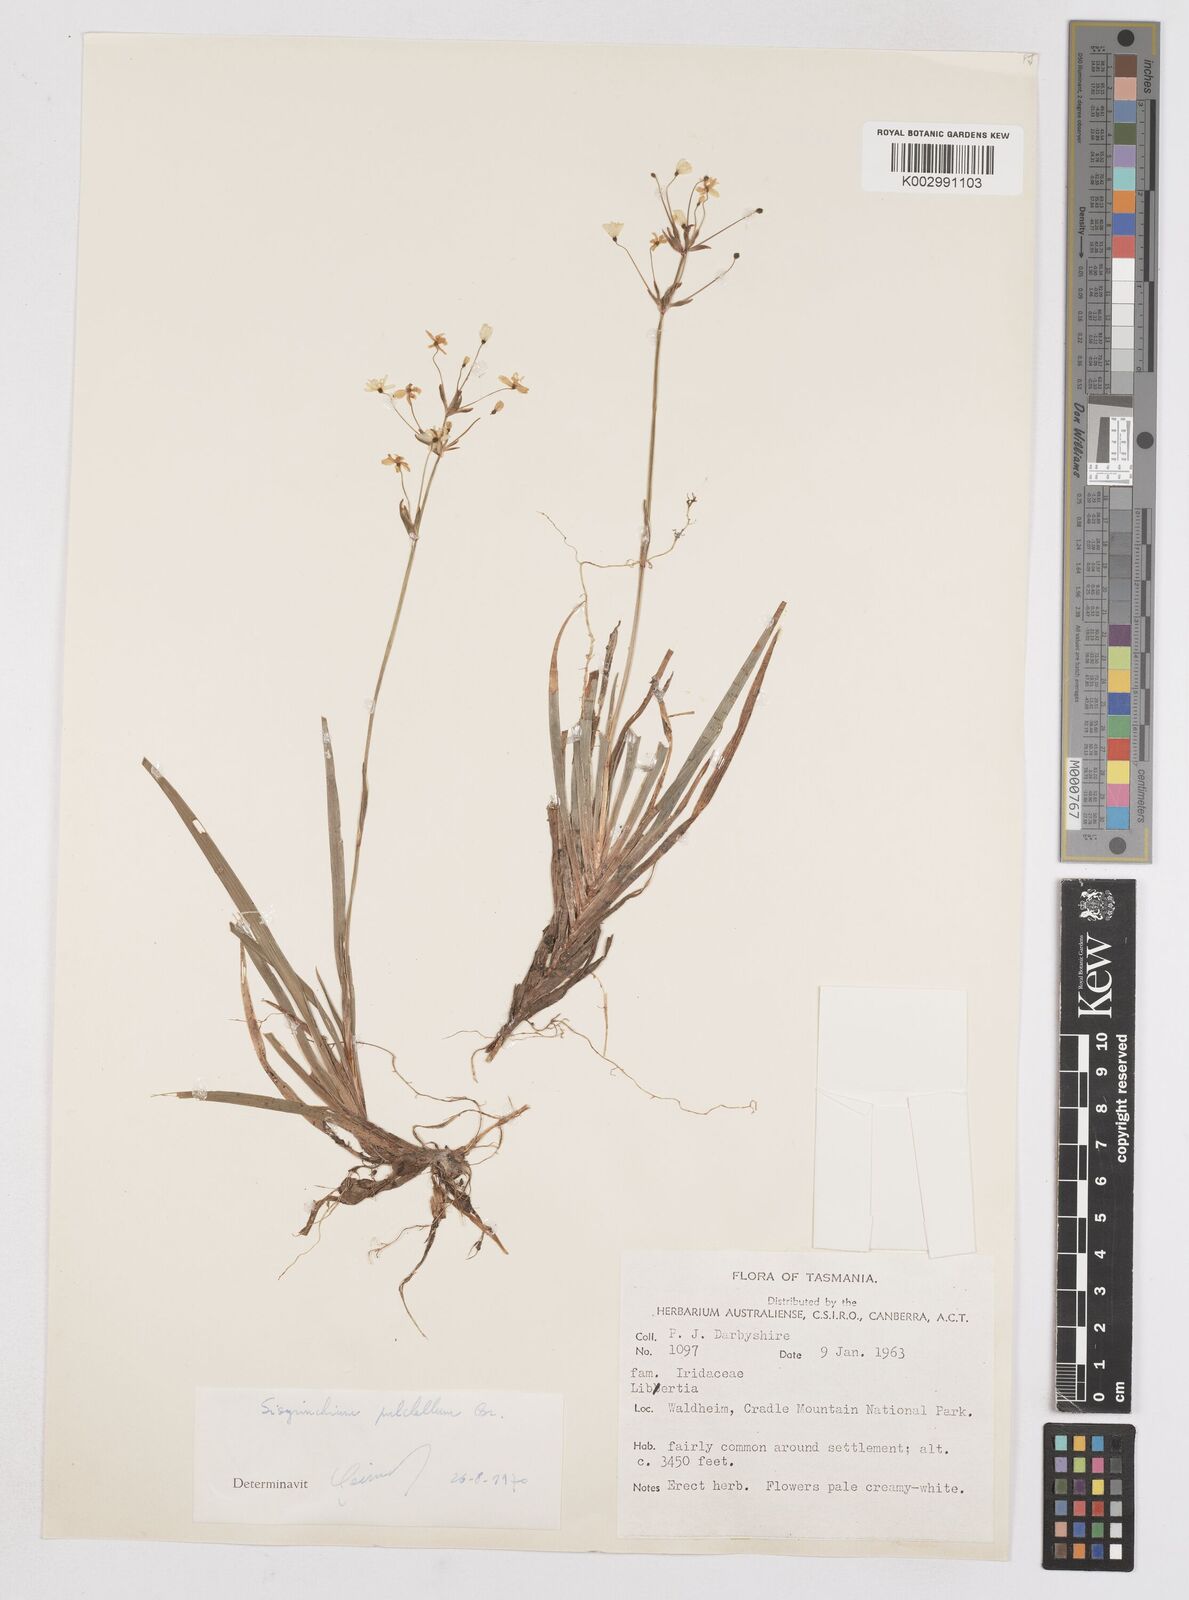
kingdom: Plantae
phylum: Tracheophyta
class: Liliopsida
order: Asparagales
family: Iridaceae
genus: Libertia
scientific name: Libertia pulchella
